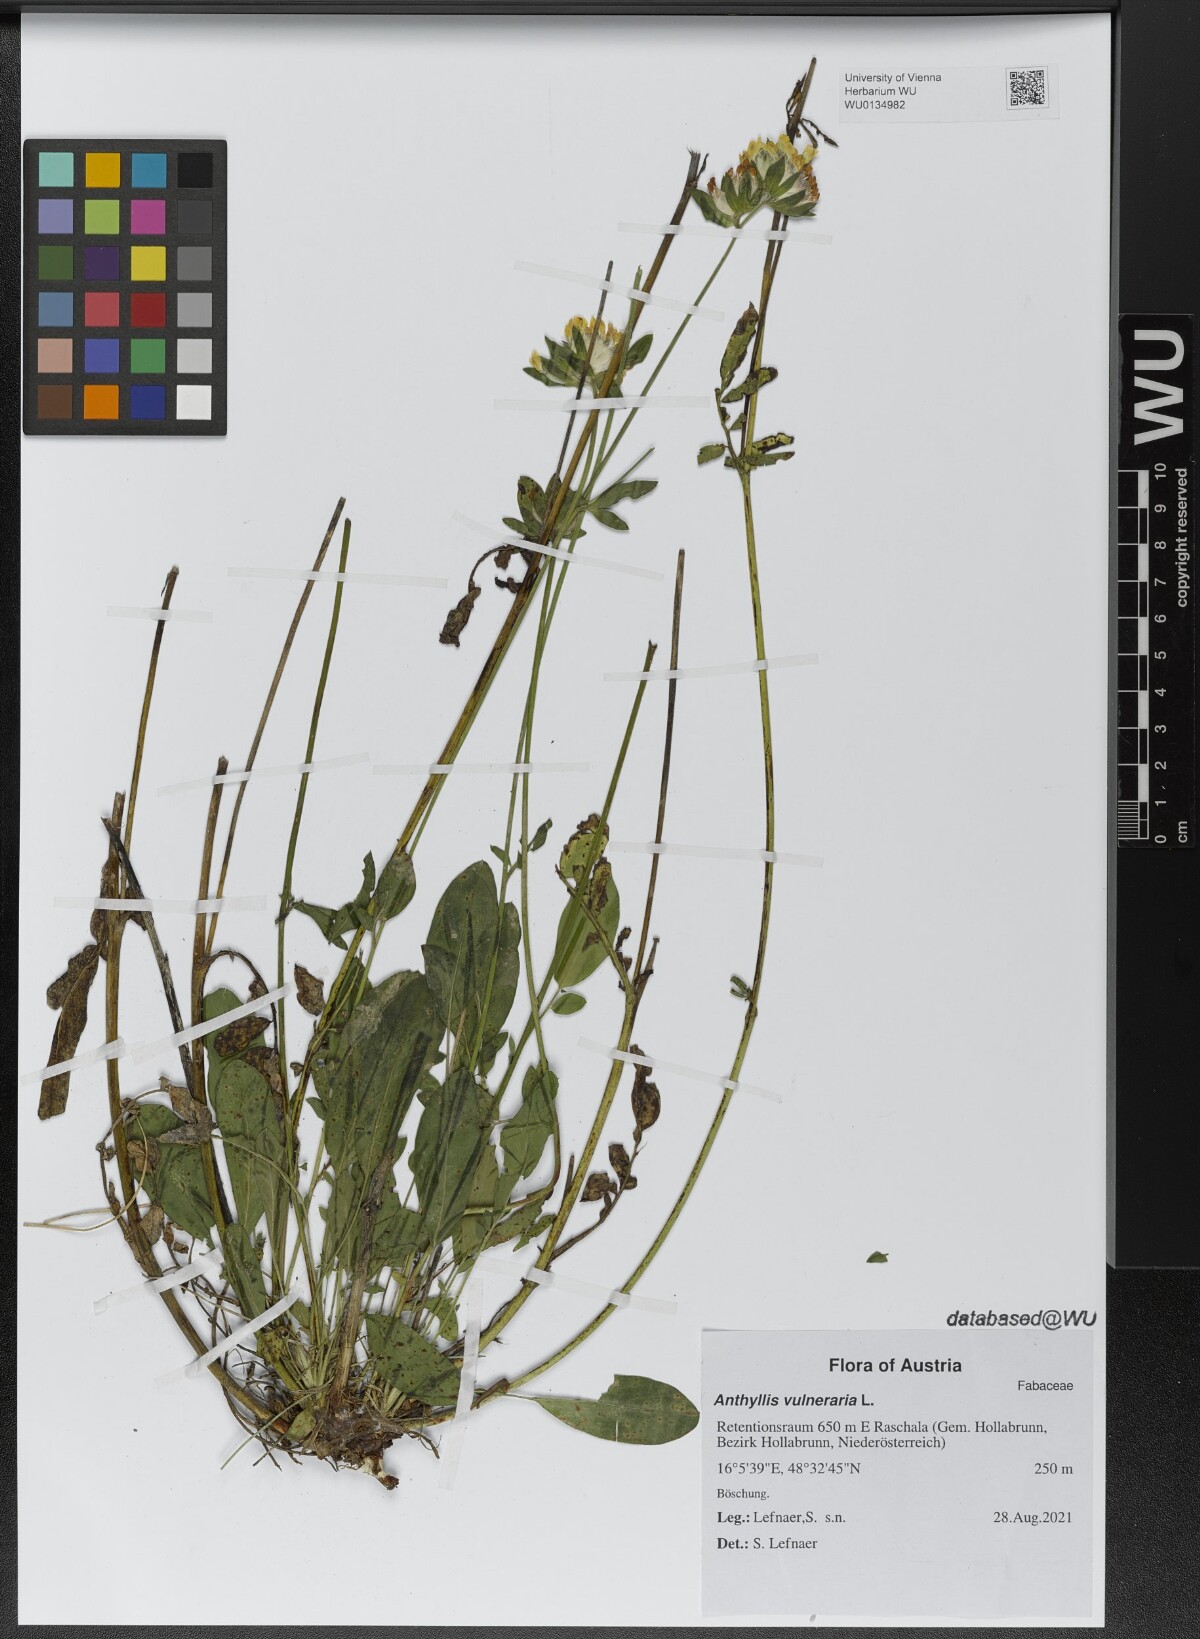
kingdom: Plantae
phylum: Tracheophyta
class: Magnoliopsida
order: Fabales
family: Fabaceae
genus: Anthyllis
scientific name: Anthyllis vulneraria
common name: Kidney vetch
